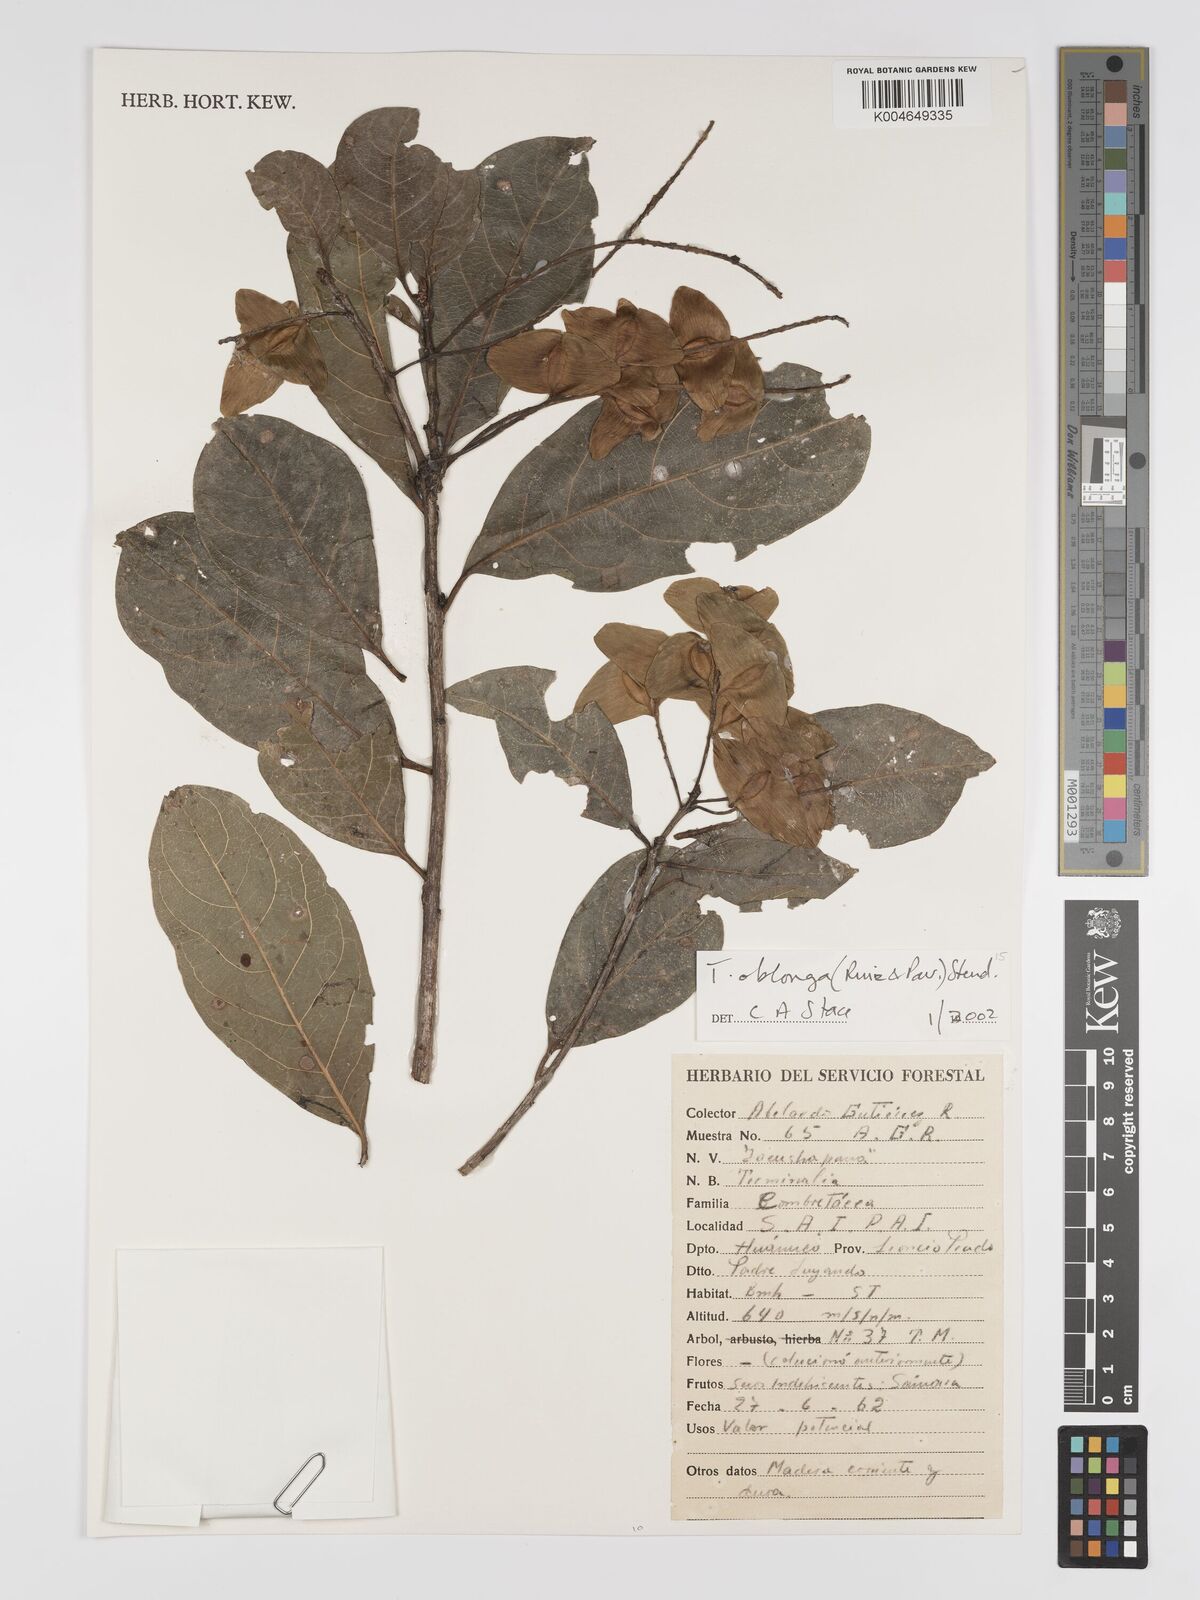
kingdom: Plantae
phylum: Tracheophyta
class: Magnoliopsida
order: Myrtales
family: Combretaceae
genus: Terminalia
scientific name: Terminalia oblonga
